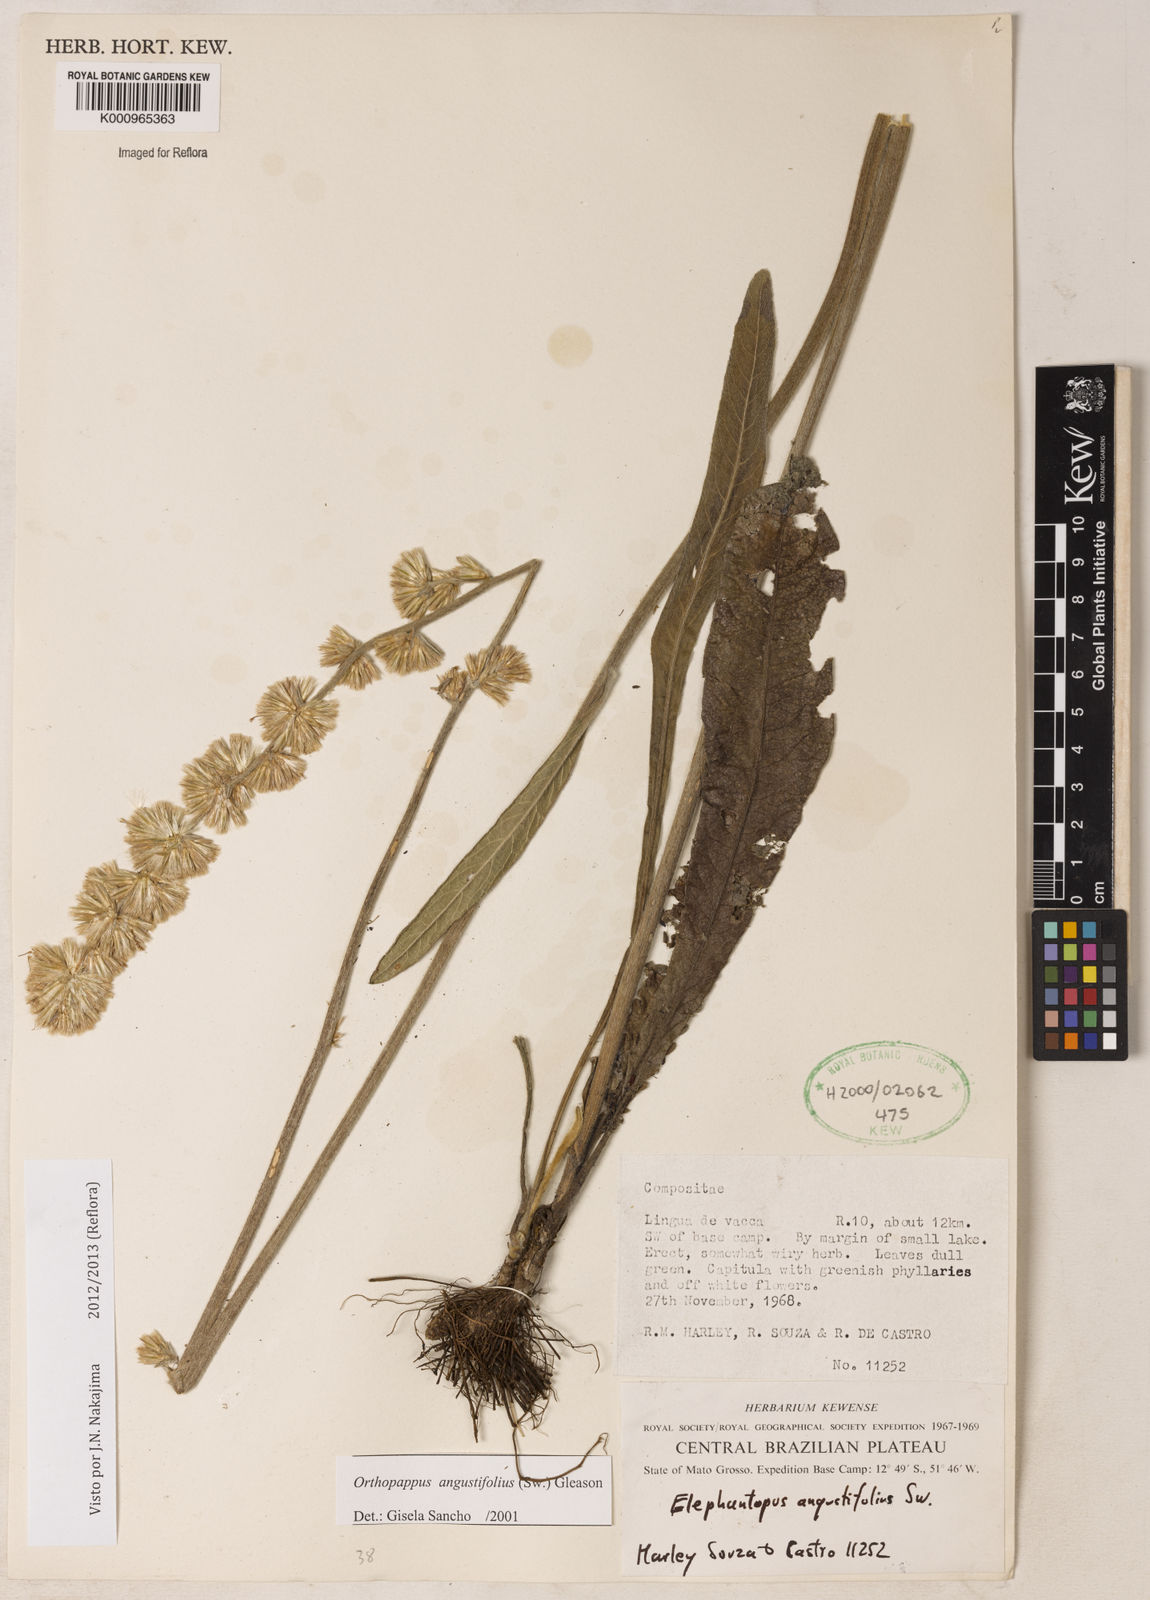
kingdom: Plantae
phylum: Tracheophyta
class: Magnoliopsida
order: Asterales
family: Asteraceae
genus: Orthopappus
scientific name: Orthopappus angustifolius
